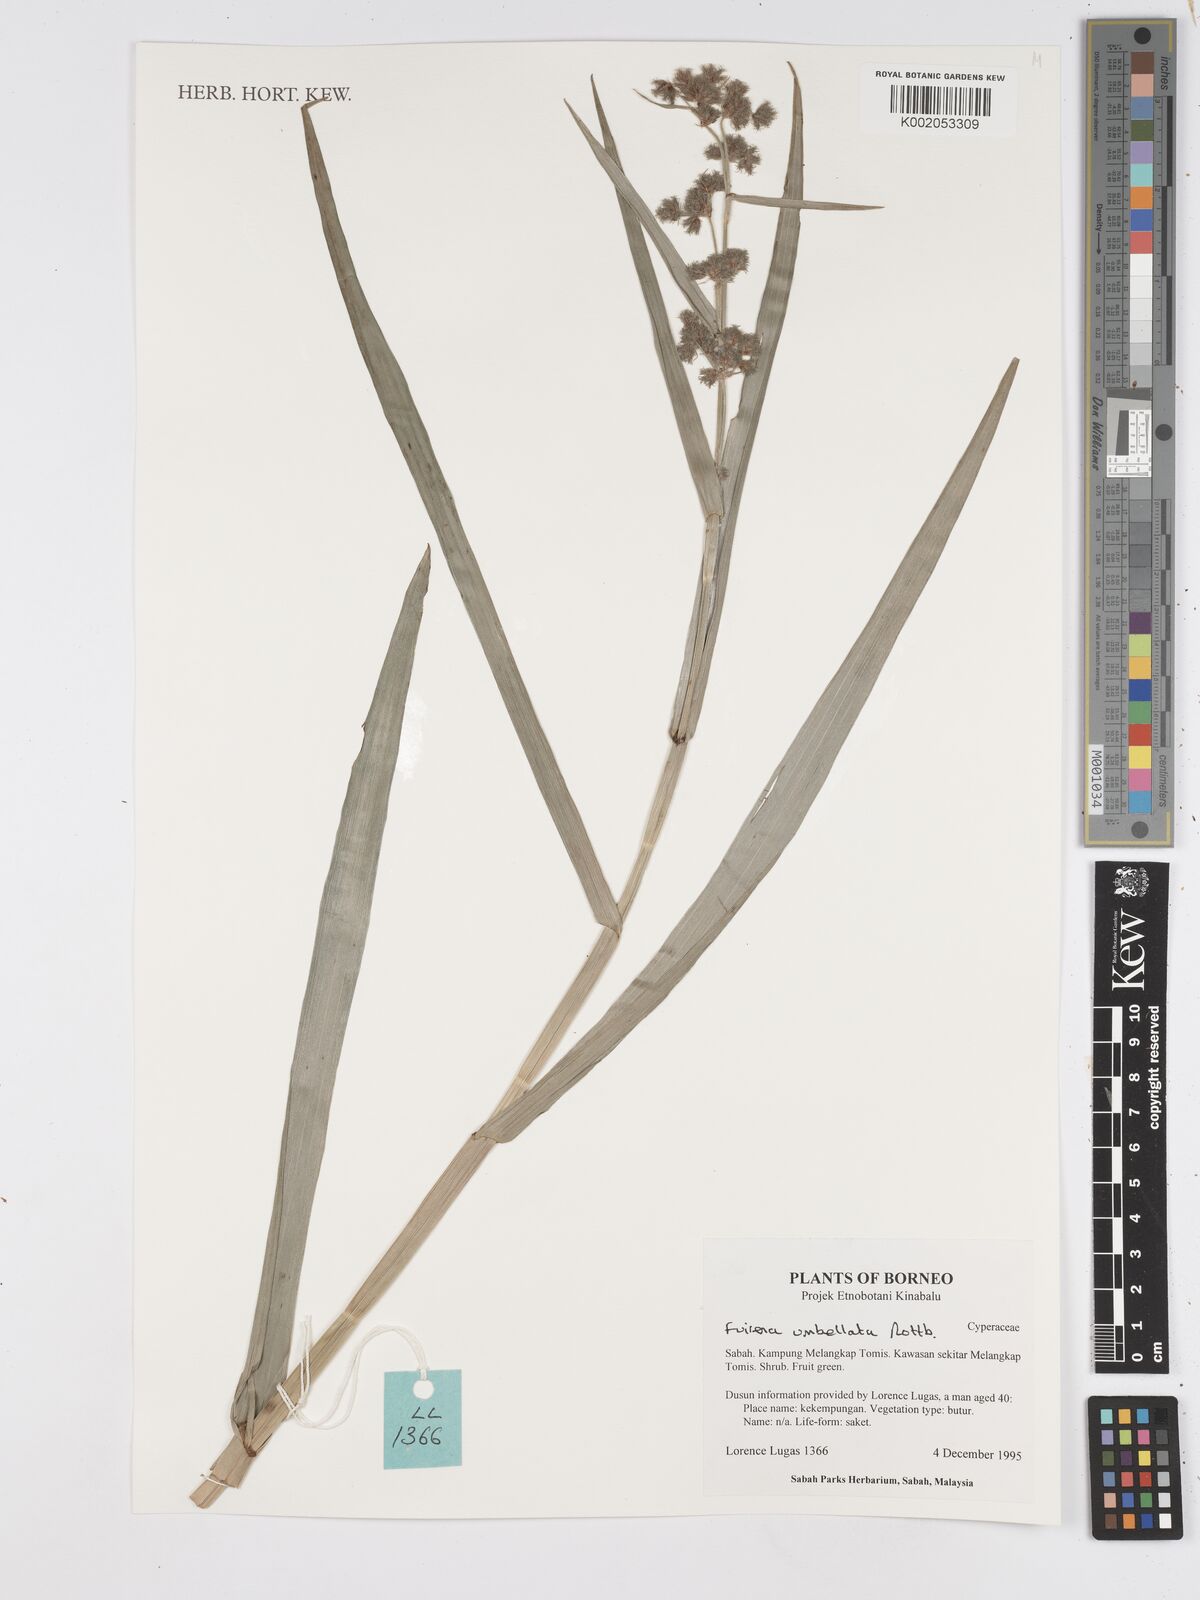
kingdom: Plantae
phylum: Tracheophyta
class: Liliopsida
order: Poales
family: Cyperaceae
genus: Fuirena
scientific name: Fuirena umbellata
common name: Yefen
